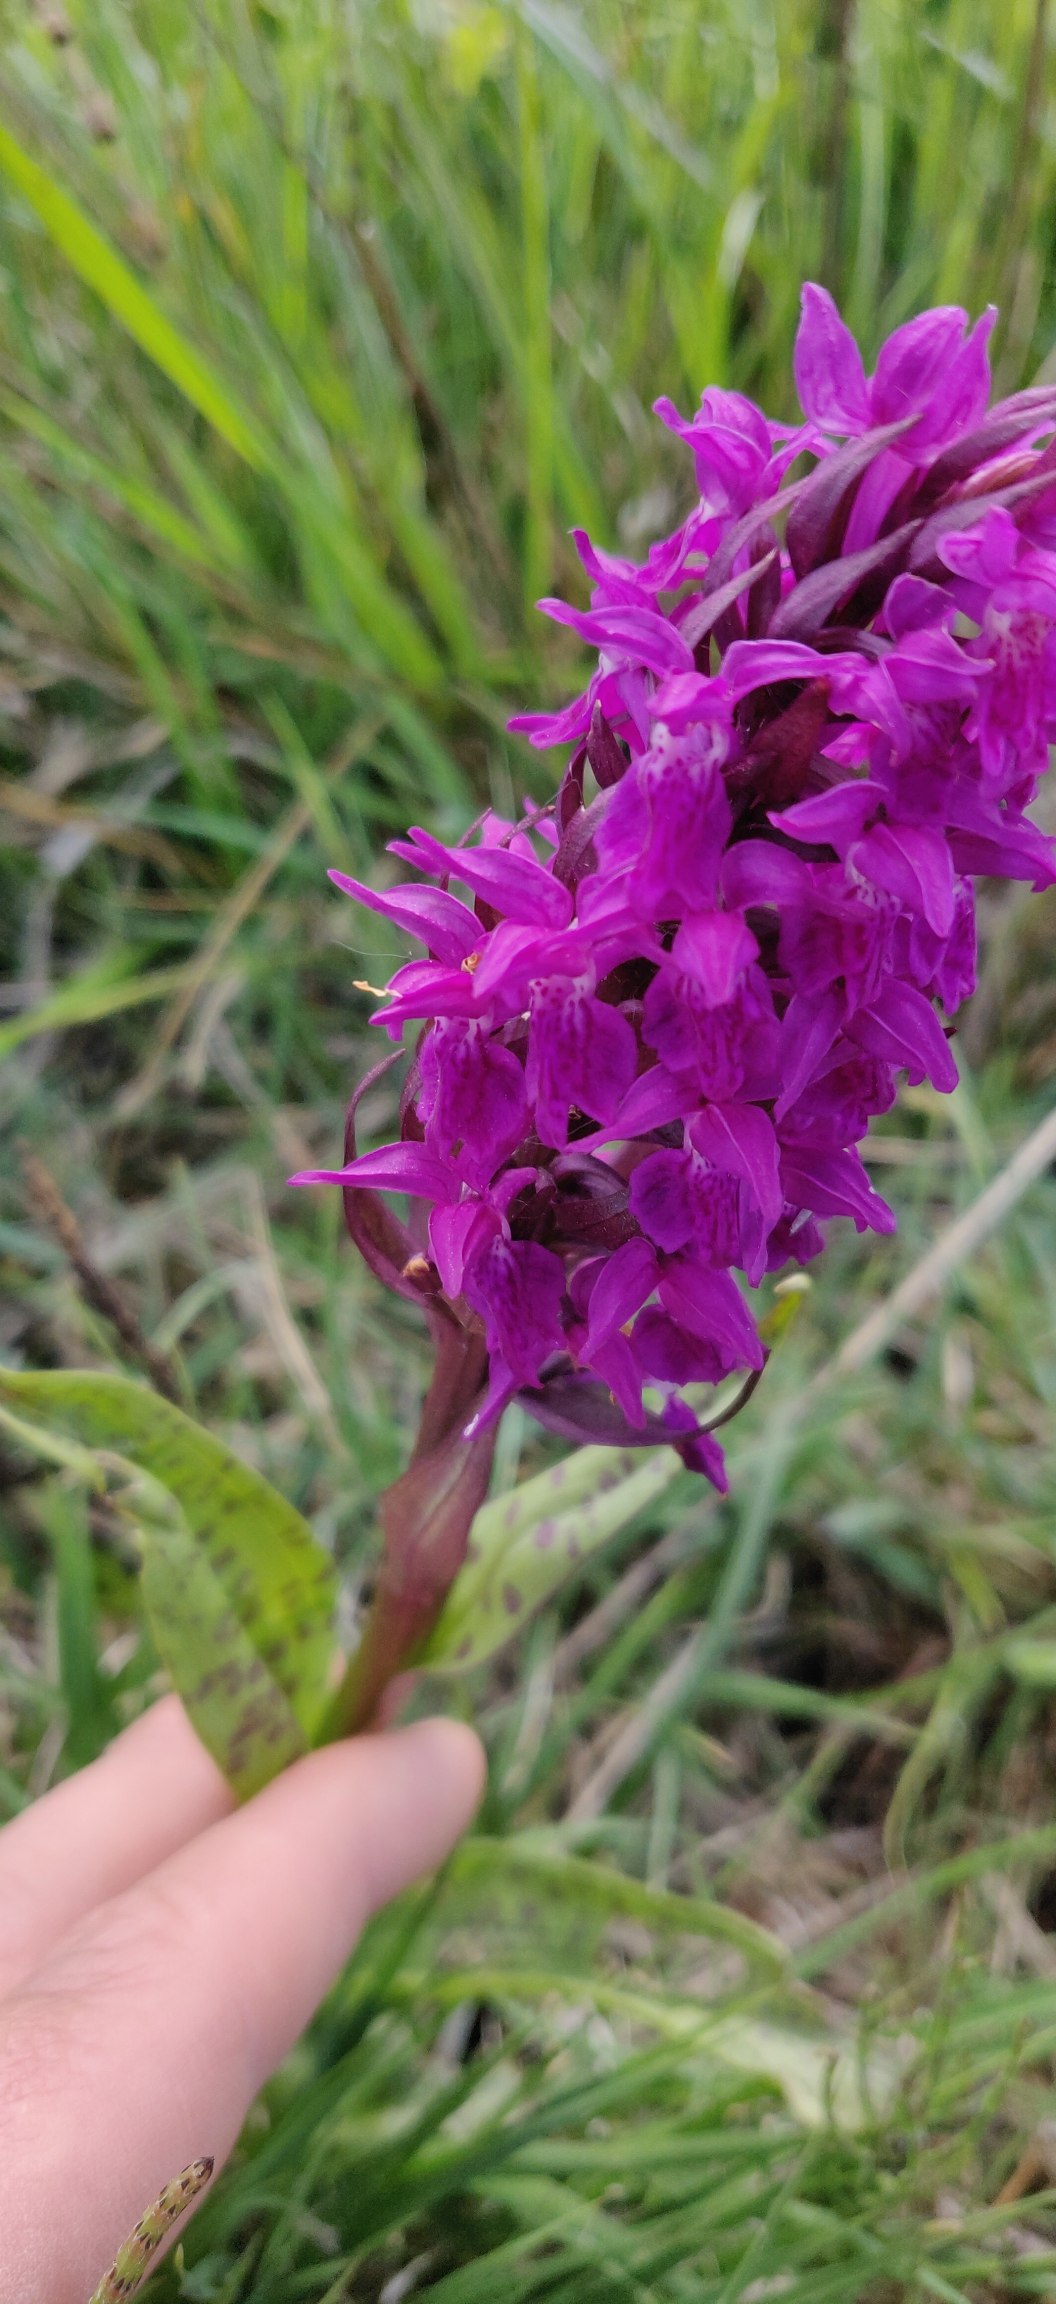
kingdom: Plantae
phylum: Tracheophyta
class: Liliopsida
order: Asparagales
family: Orchidaceae
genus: Dactylorhiza
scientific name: Dactylorhiza majalis
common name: Maj-gøgeurt
